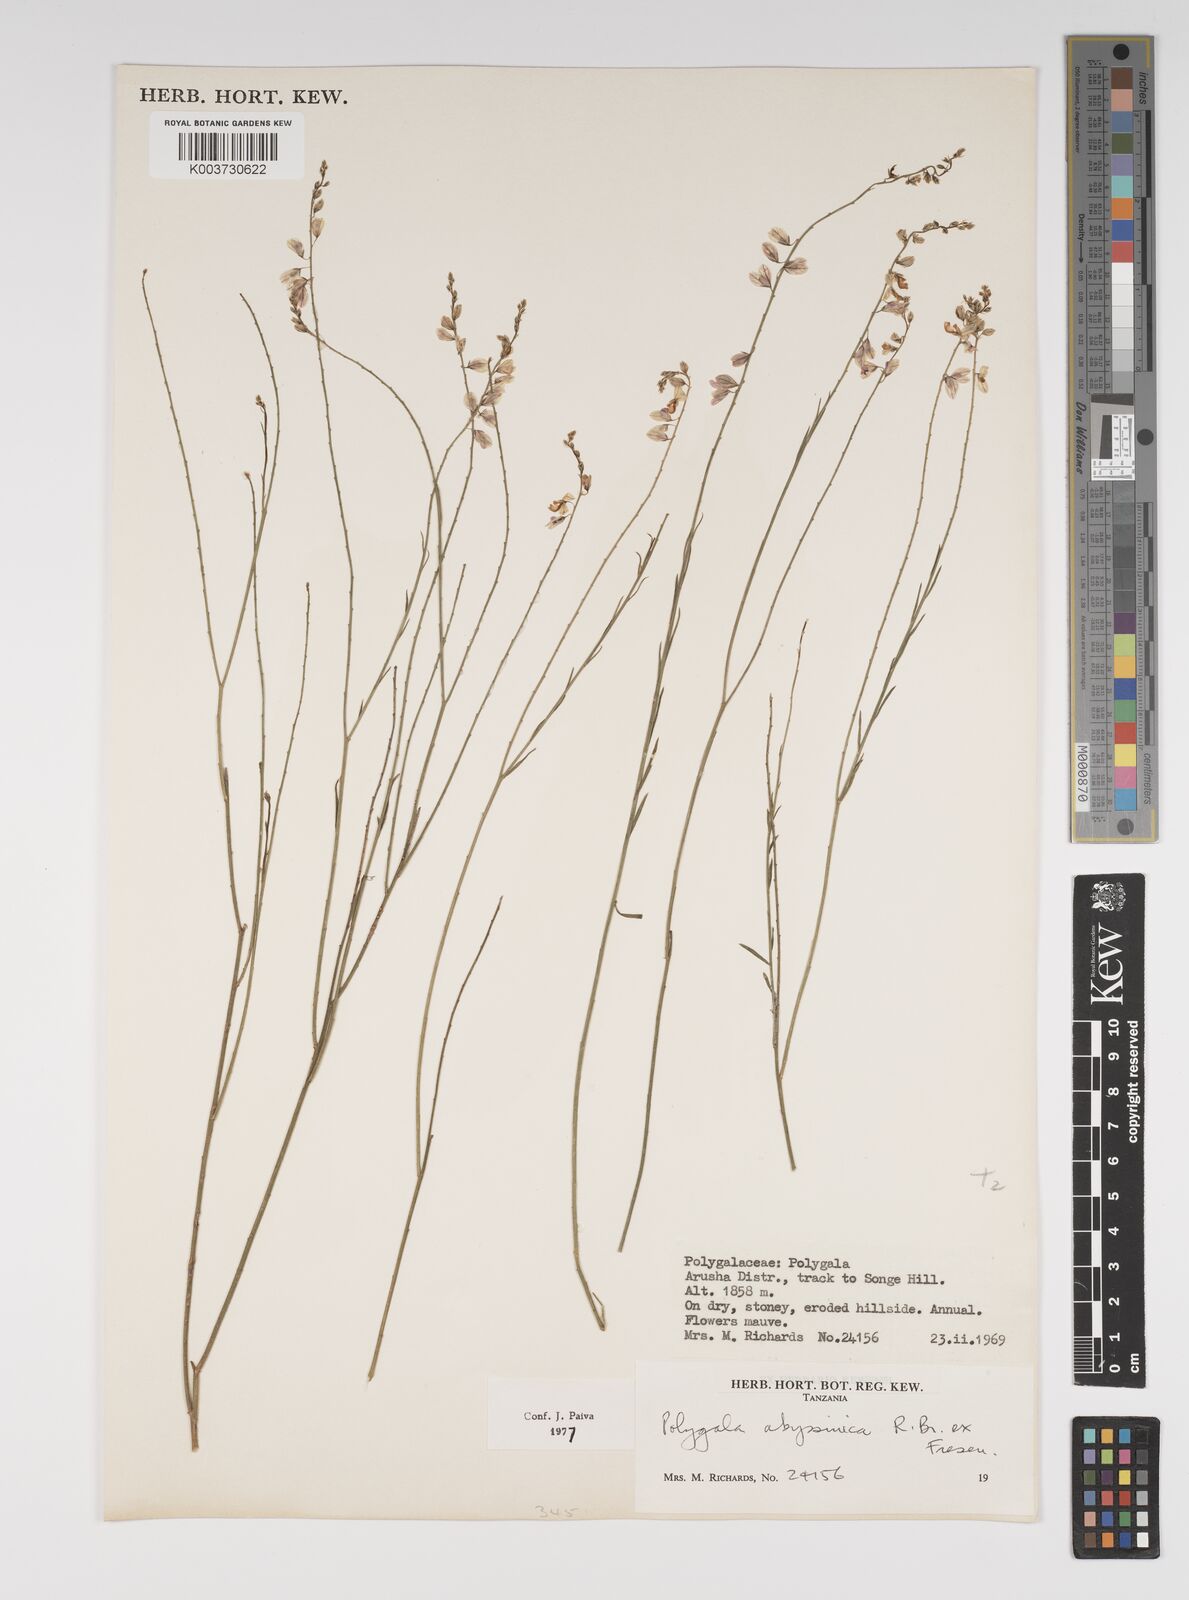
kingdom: Plantae
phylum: Tracheophyta
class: Magnoliopsida
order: Fabales
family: Polygalaceae
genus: Polygala
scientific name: Polygala abyssinica
